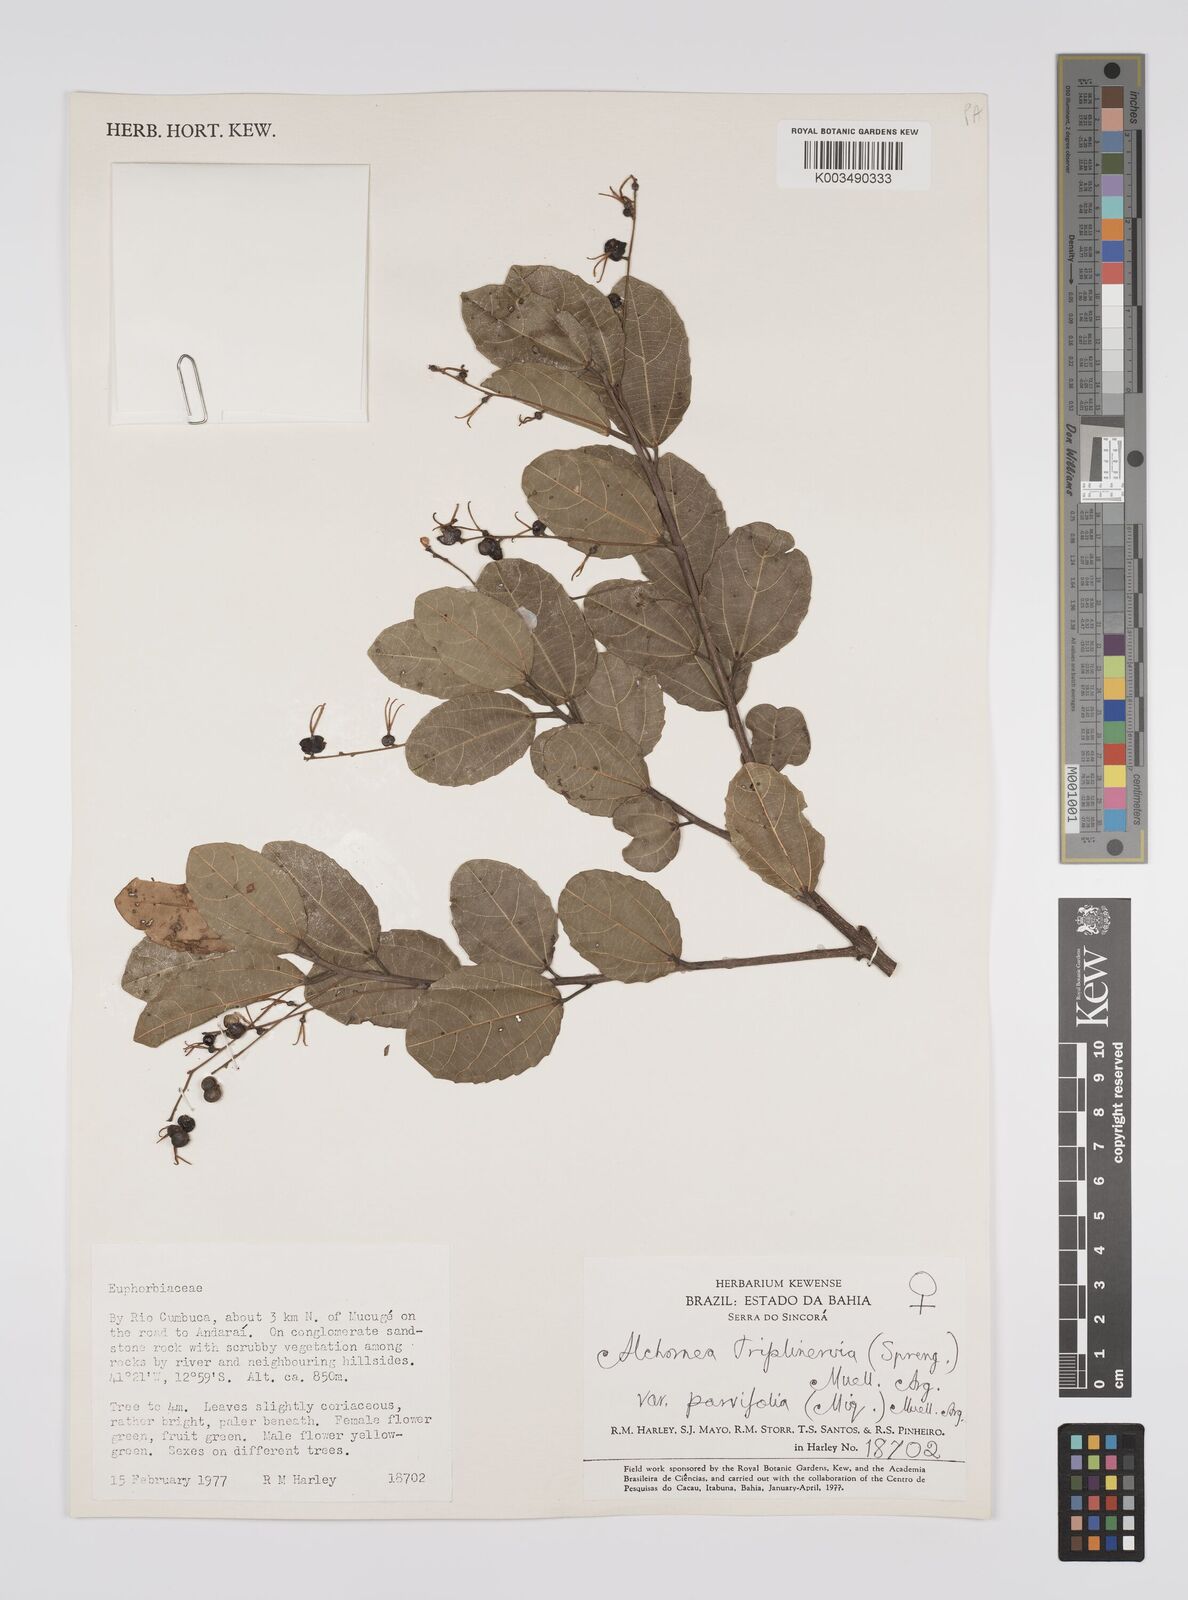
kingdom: Plantae
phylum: Tracheophyta
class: Magnoliopsida
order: Malpighiales
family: Euphorbiaceae
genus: Alchornea
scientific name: Alchornea triplinervia
